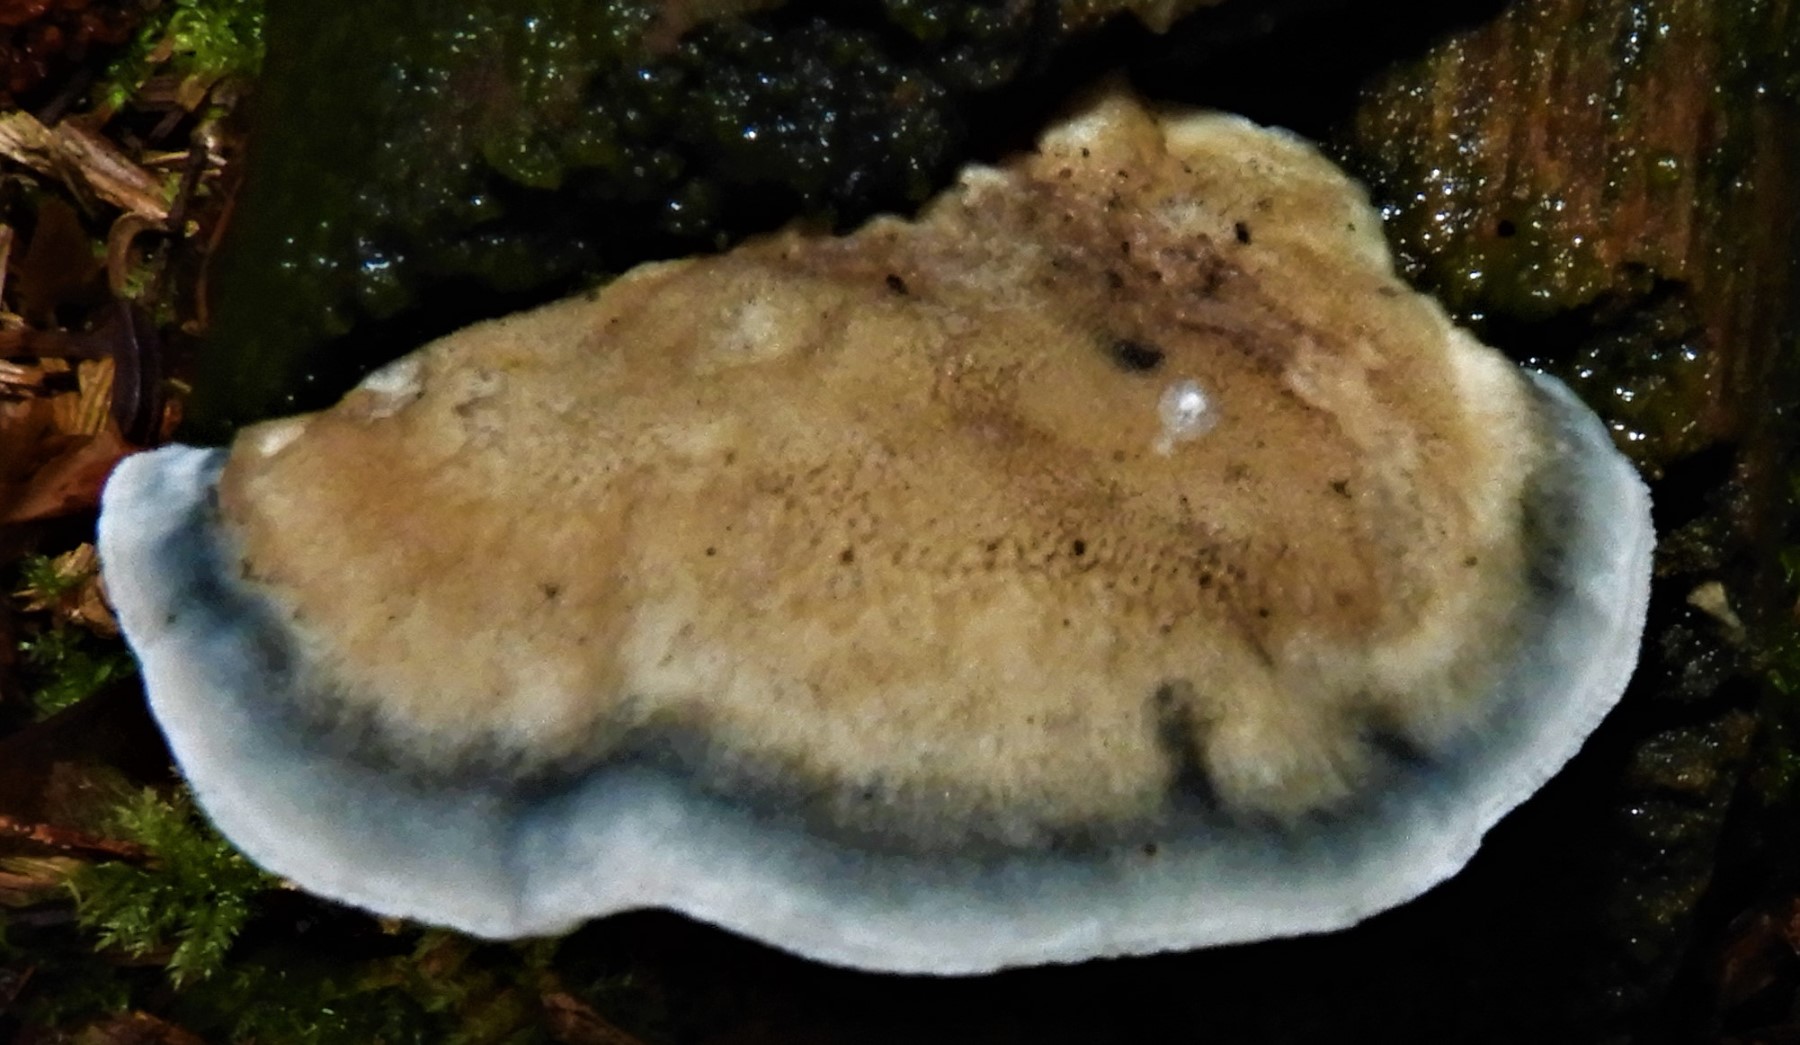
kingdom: Fungi
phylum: Basidiomycota
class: Agaricomycetes
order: Polyporales
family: Polyporaceae
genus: Cyanosporus
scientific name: Cyanosporus alni
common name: blegblå kødporesvamp
